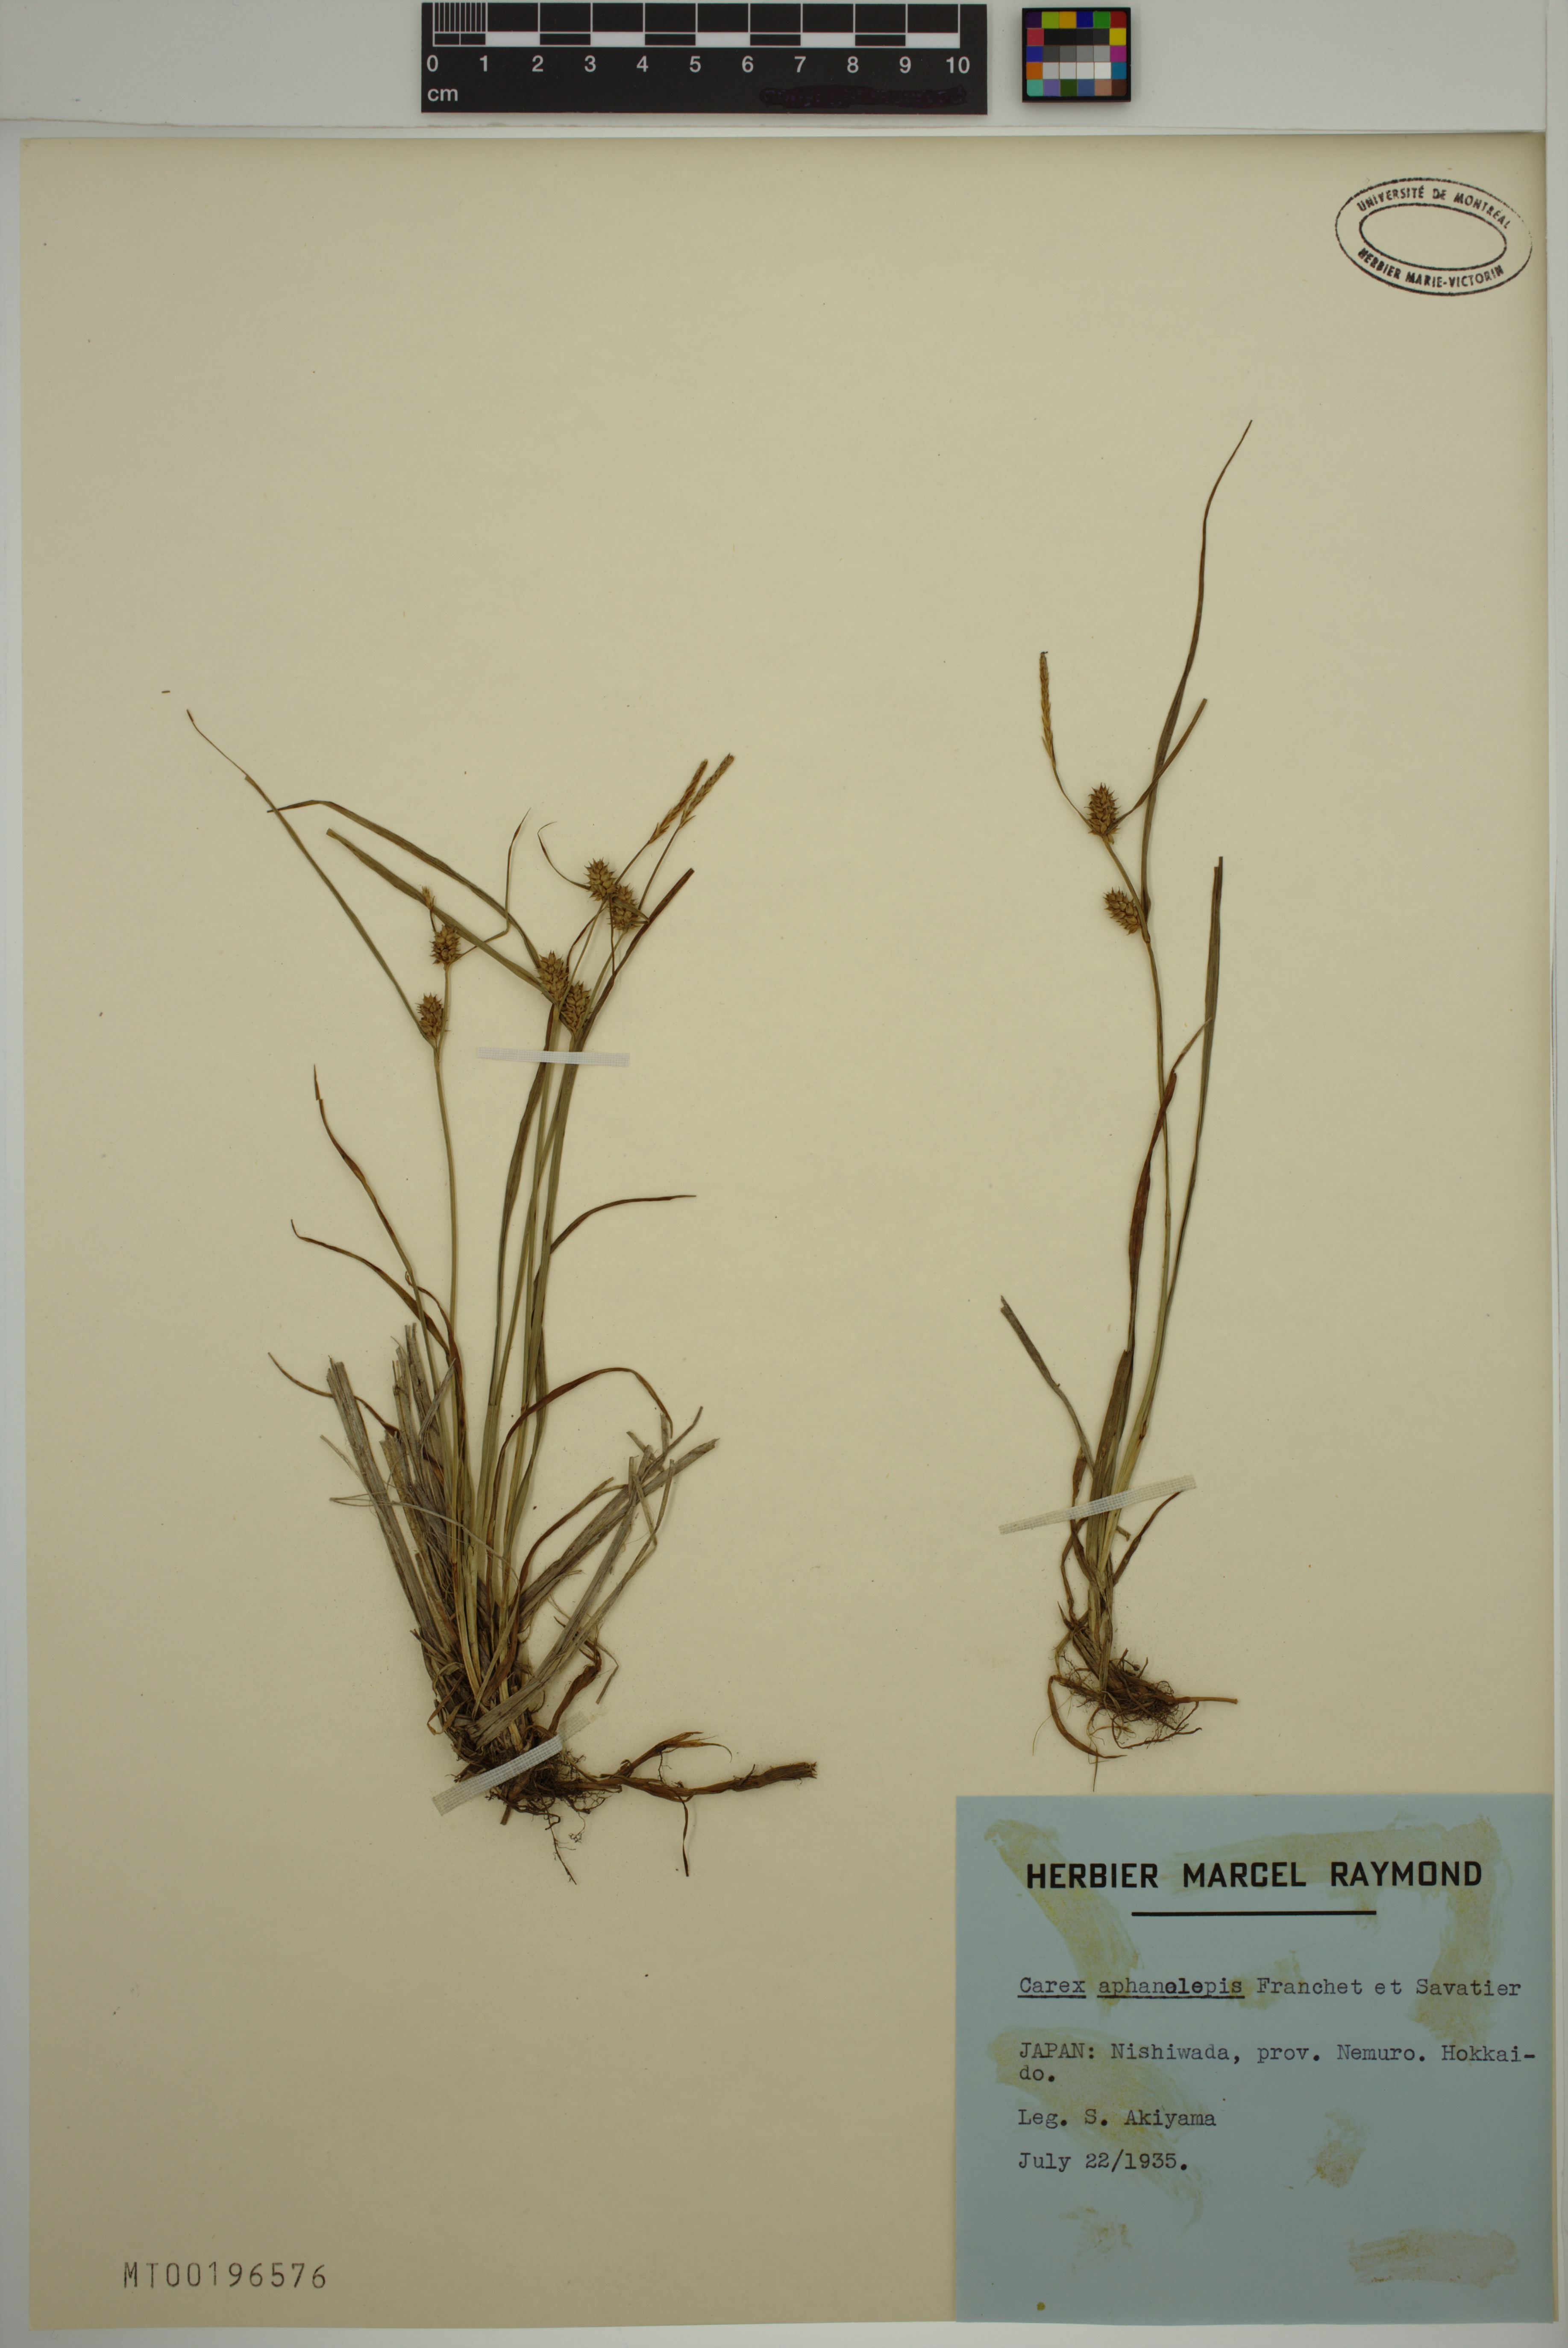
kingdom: Plantae
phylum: Tracheophyta
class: Liliopsida
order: Poales
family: Cyperaceae
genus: Carex
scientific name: Carex aphanolepis
